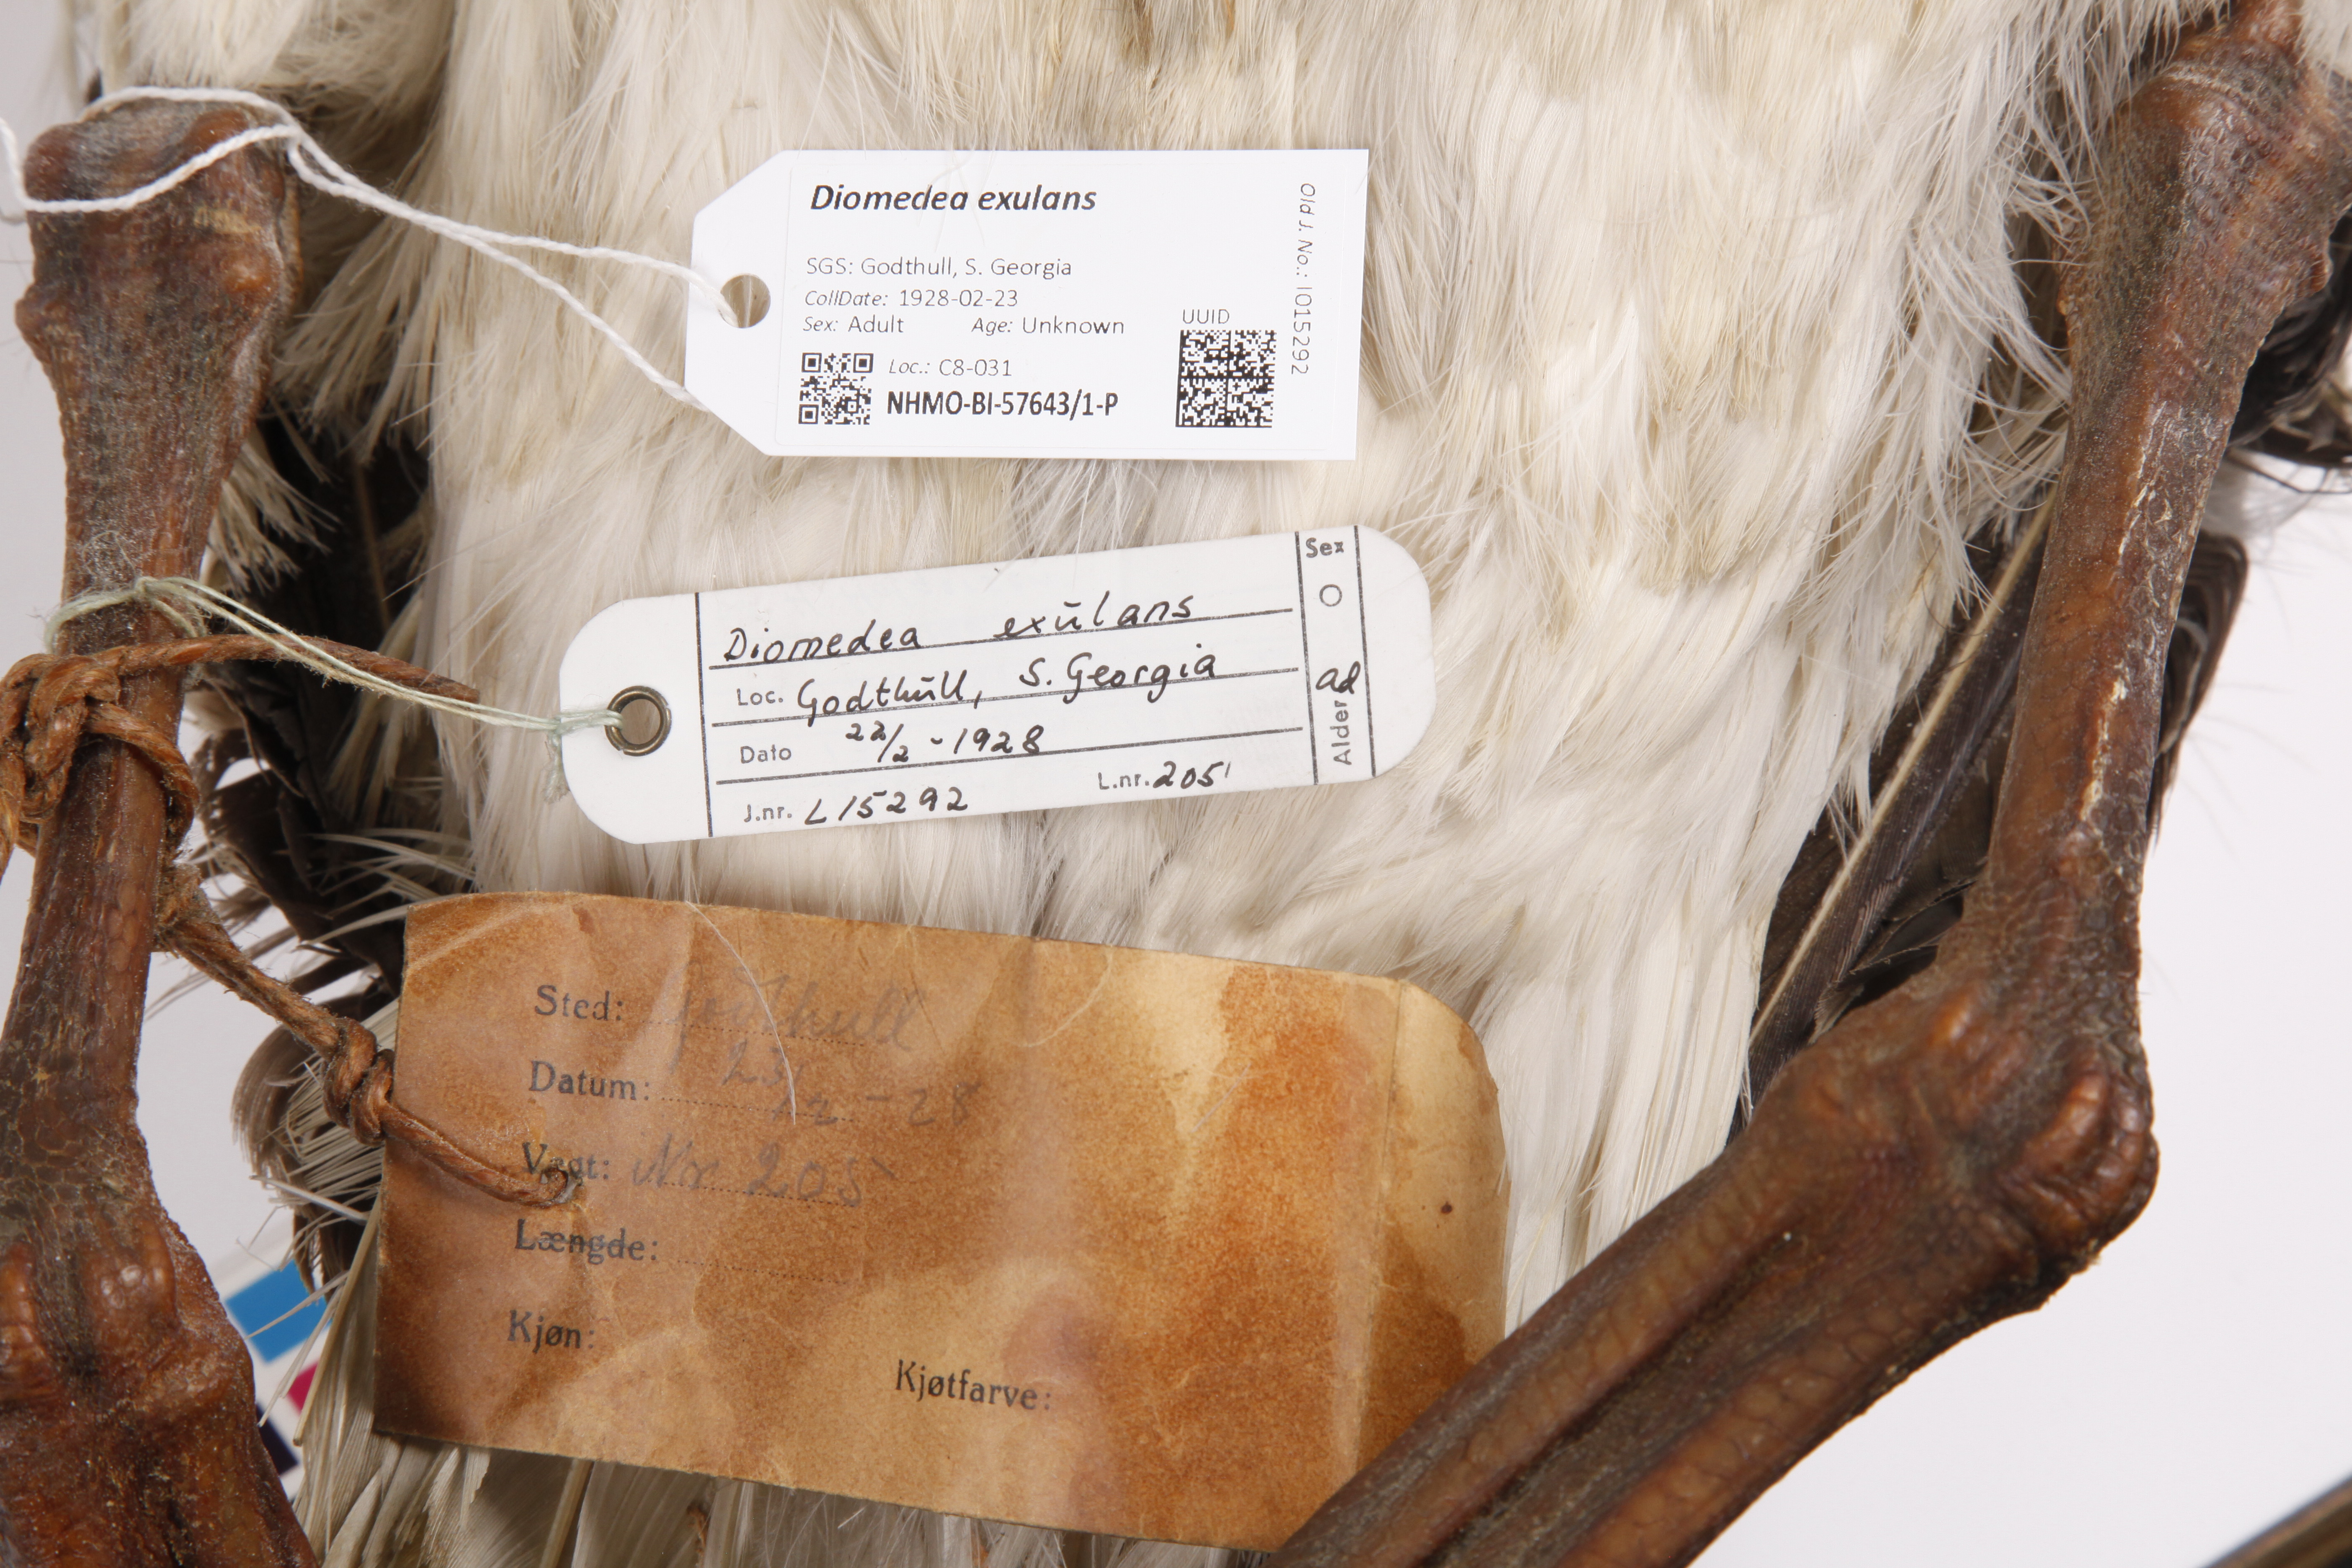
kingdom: Animalia
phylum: Chordata
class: Aves
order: Procellariiformes
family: Diomedeidae
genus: Diomedea
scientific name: Diomedea exulans
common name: Wandering albatross
